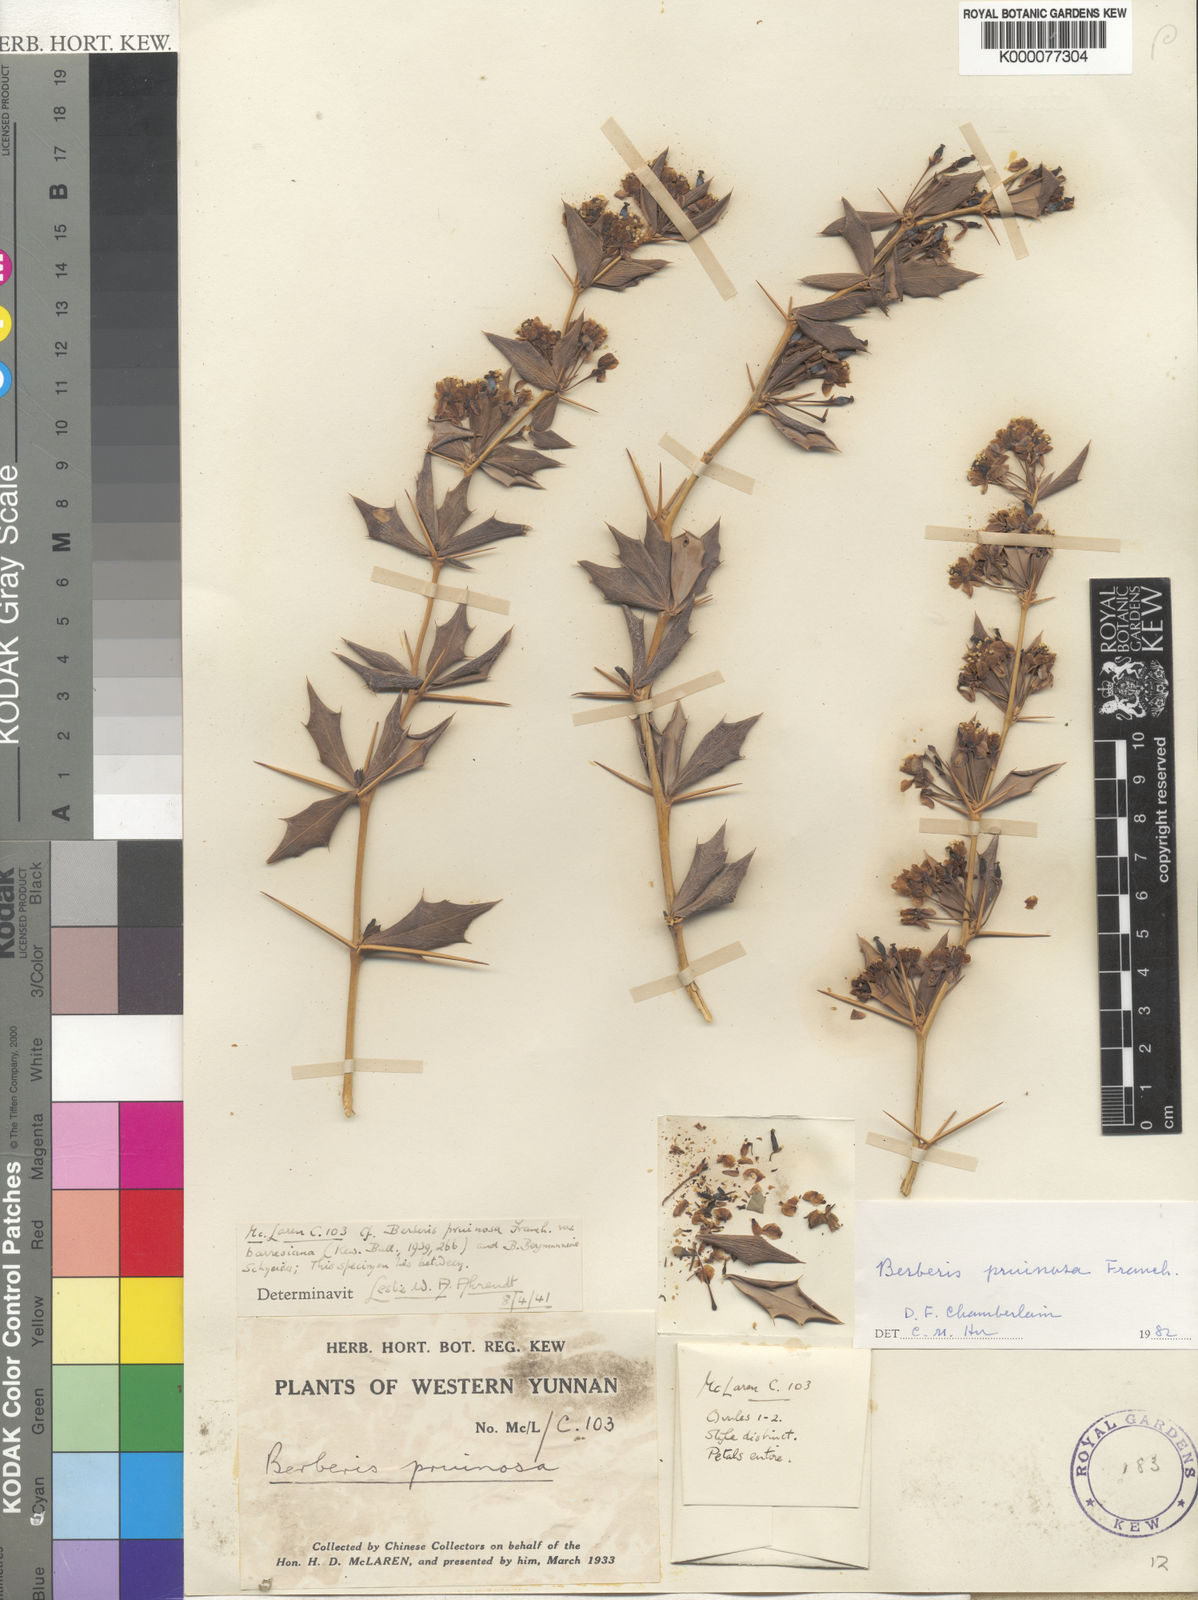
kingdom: Plantae
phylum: Tracheophyta
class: Magnoliopsida
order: Ranunculales
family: Berberidaceae
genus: Berberis
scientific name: Berberis pruinosa
